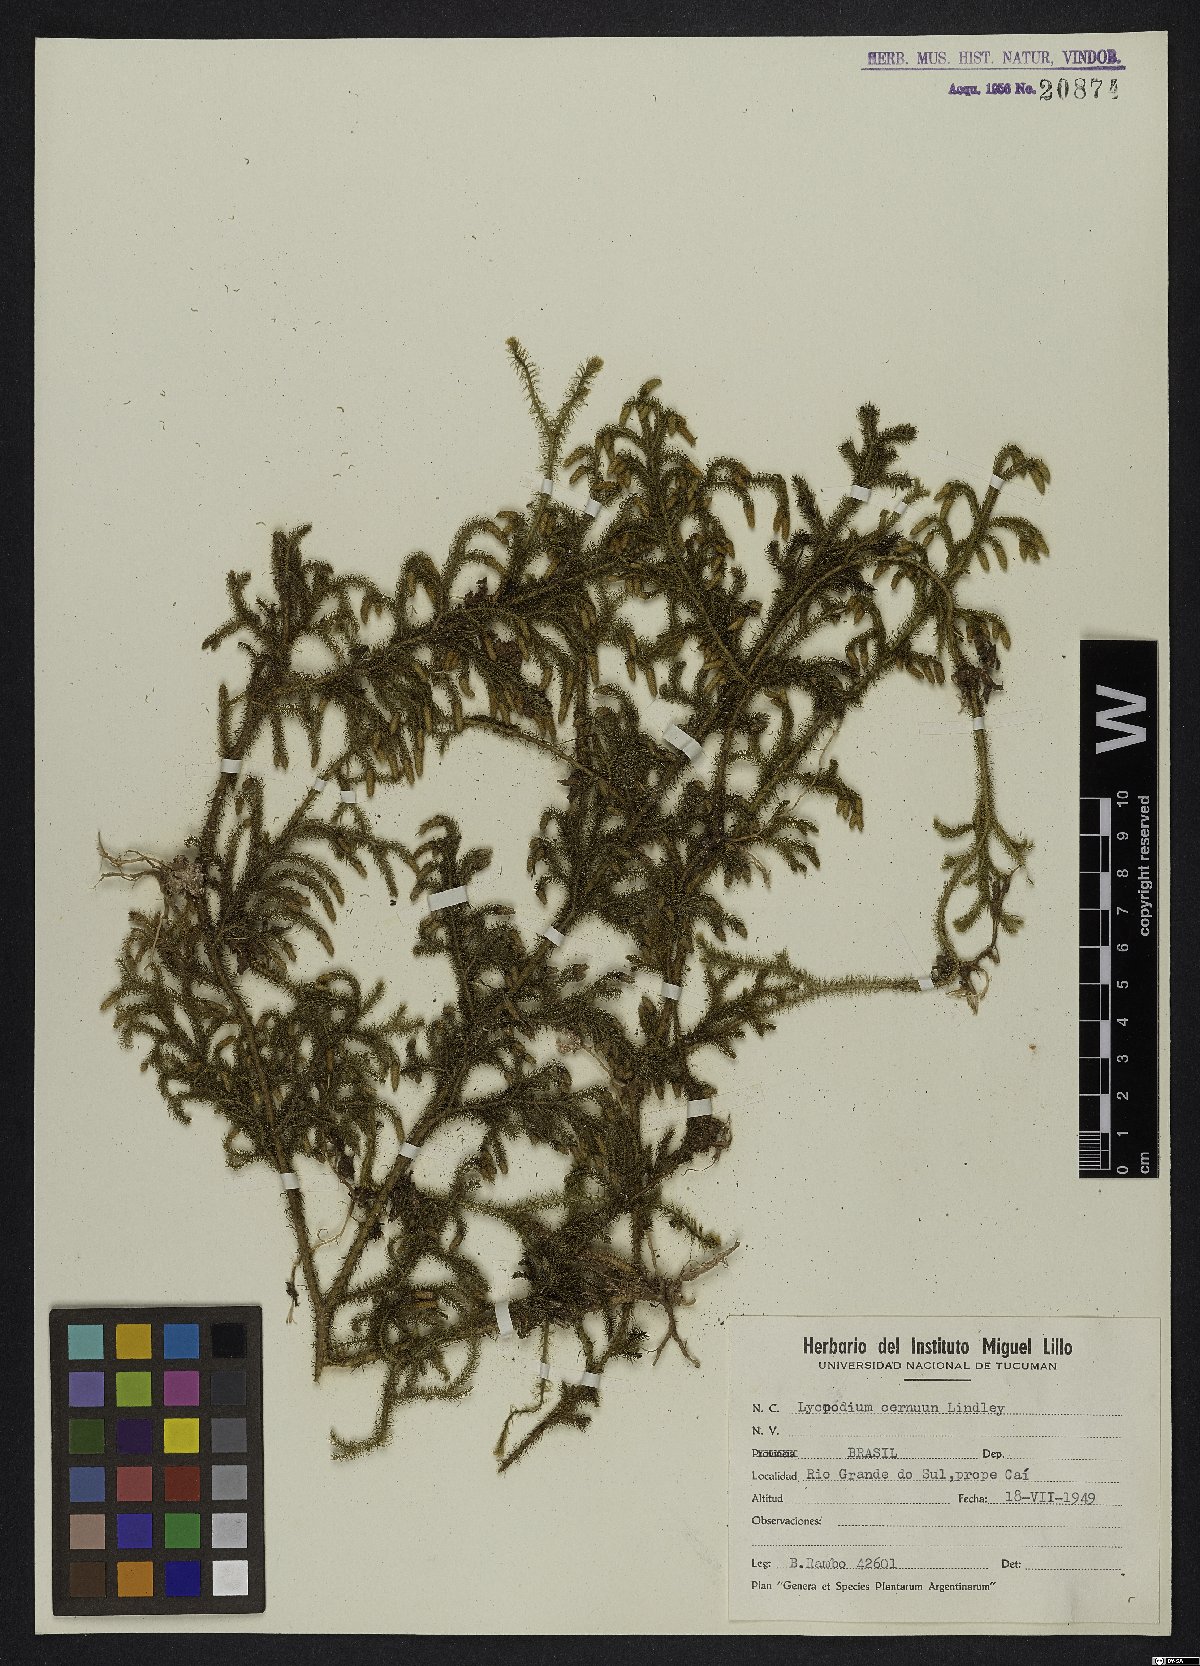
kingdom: Plantae
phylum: Tracheophyta
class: Lycopodiopsida
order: Lycopodiales
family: Lycopodiaceae
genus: Palhinhaea
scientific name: Palhinhaea cernua
